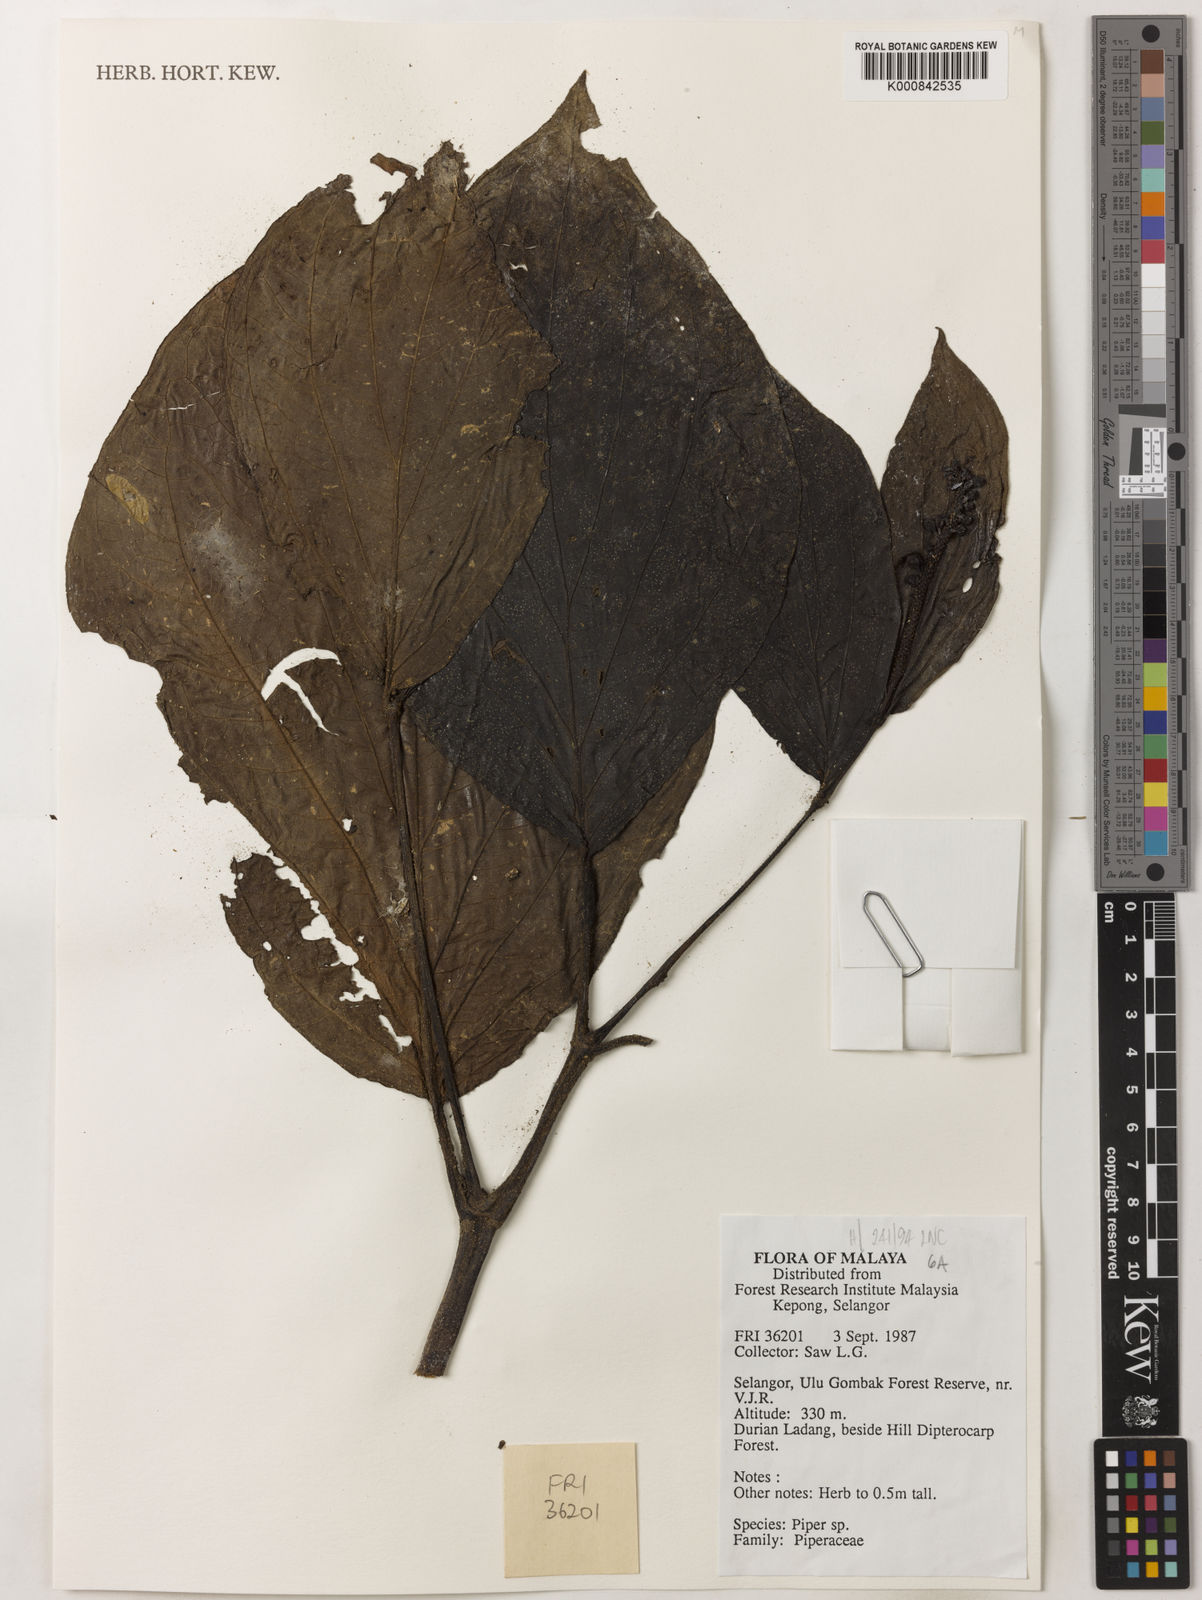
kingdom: Plantae
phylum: Tracheophyta
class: Magnoliopsida
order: Piperales
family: Piperaceae
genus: Piper
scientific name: Piper
